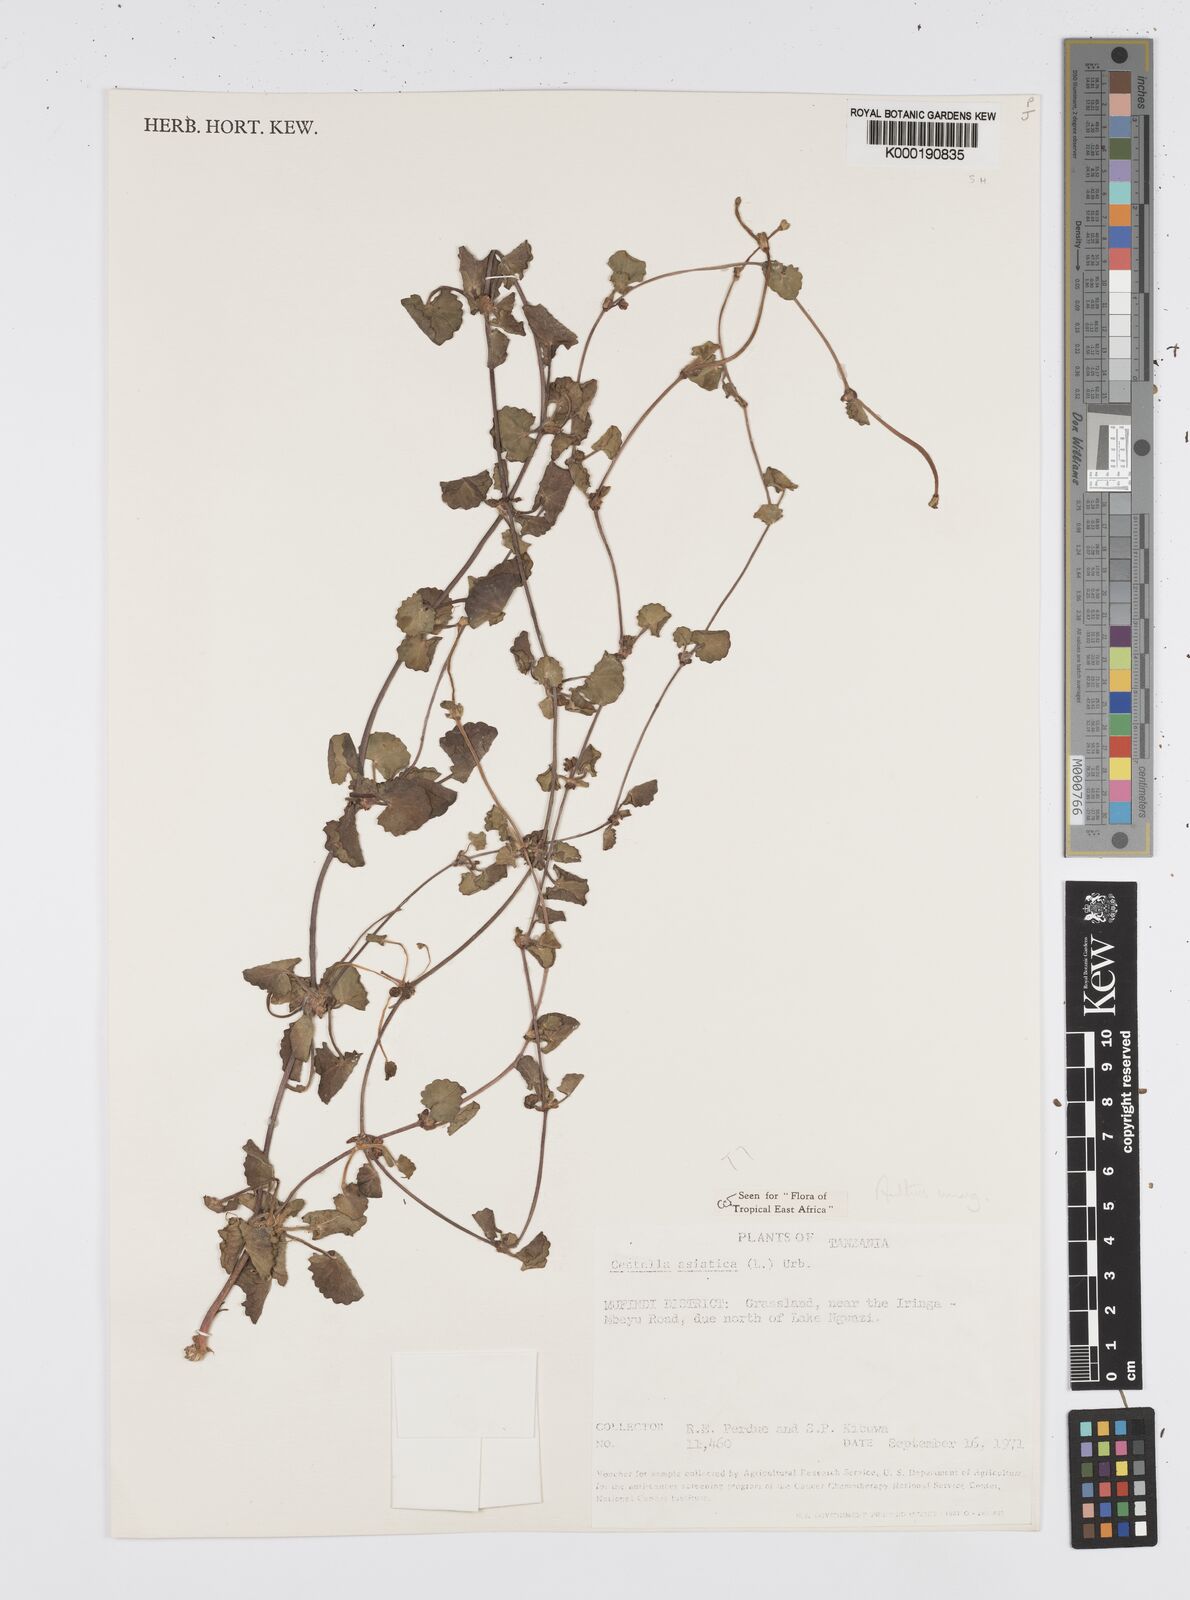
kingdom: Plantae
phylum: Tracheophyta
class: Magnoliopsida
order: Apiales
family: Apiaceae
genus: Centella
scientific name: Centella asiatica
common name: Spadeleaf
